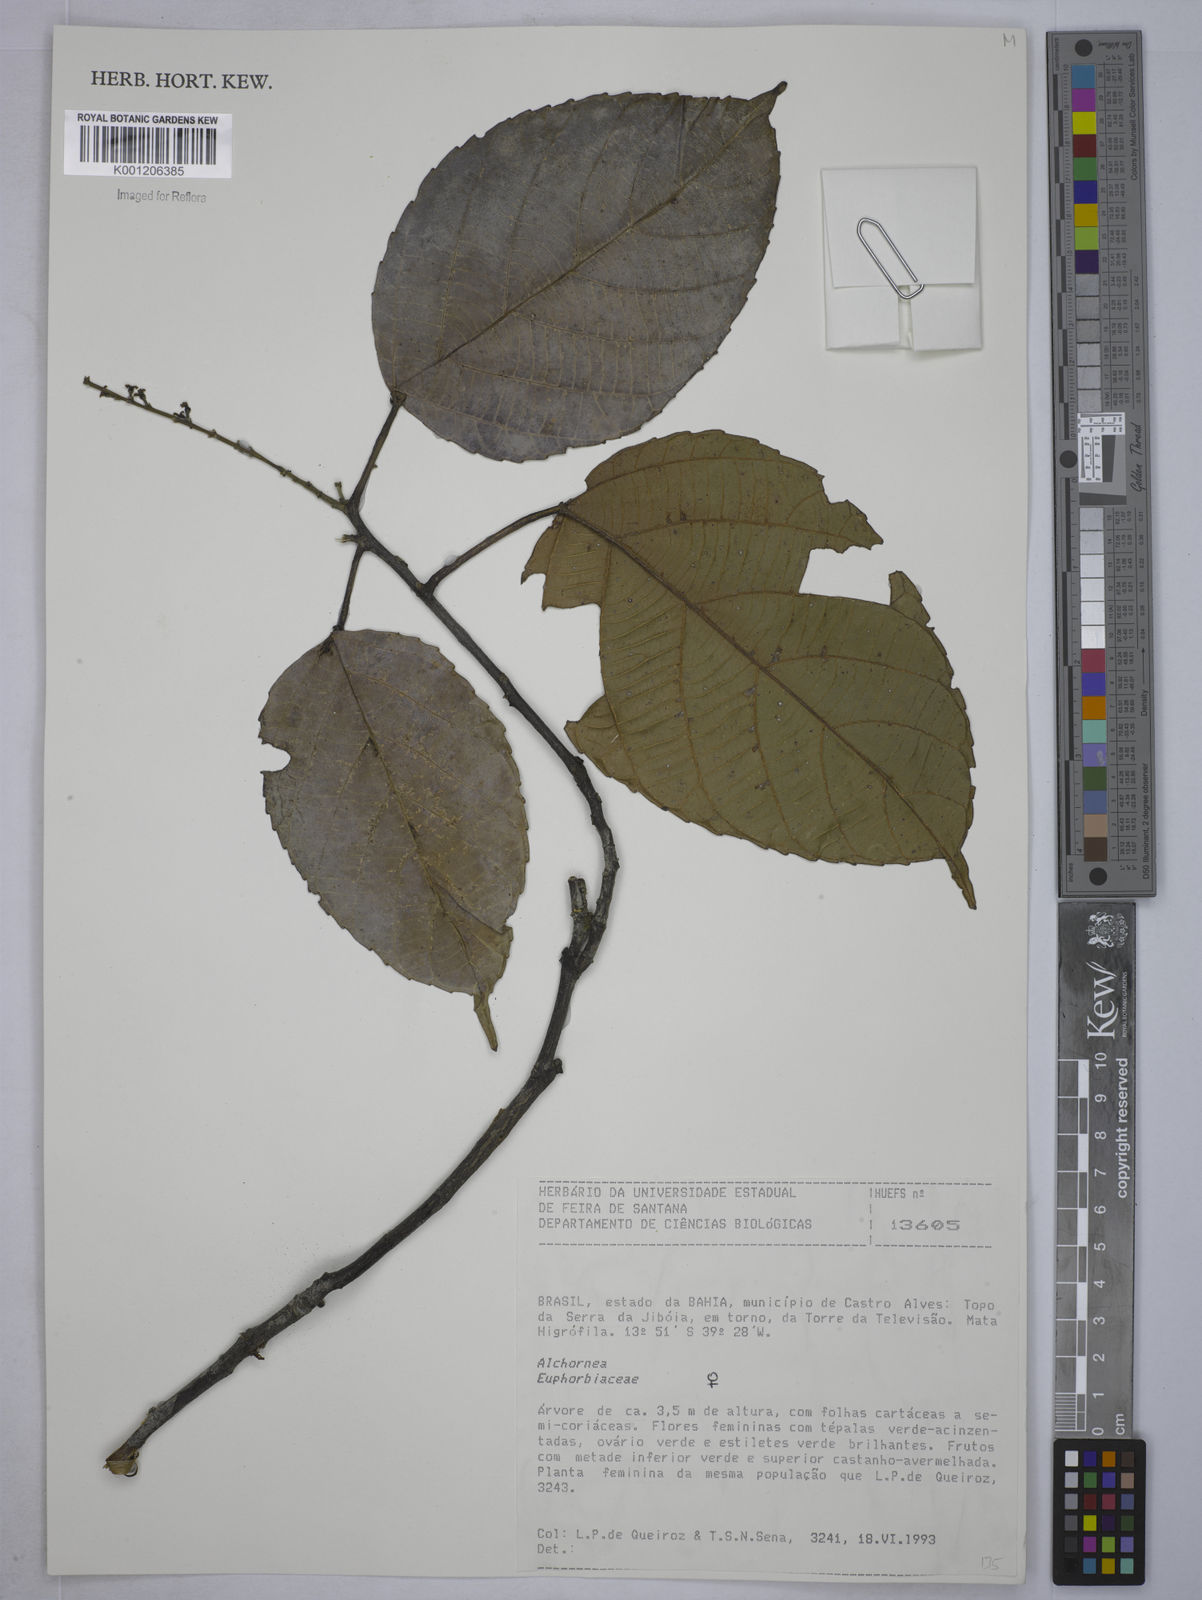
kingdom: Plantae
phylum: Tracheophyta
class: Magnoliopsida
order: Malpighiales
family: Euphorbiaceae
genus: Alchornea
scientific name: Alchornea
